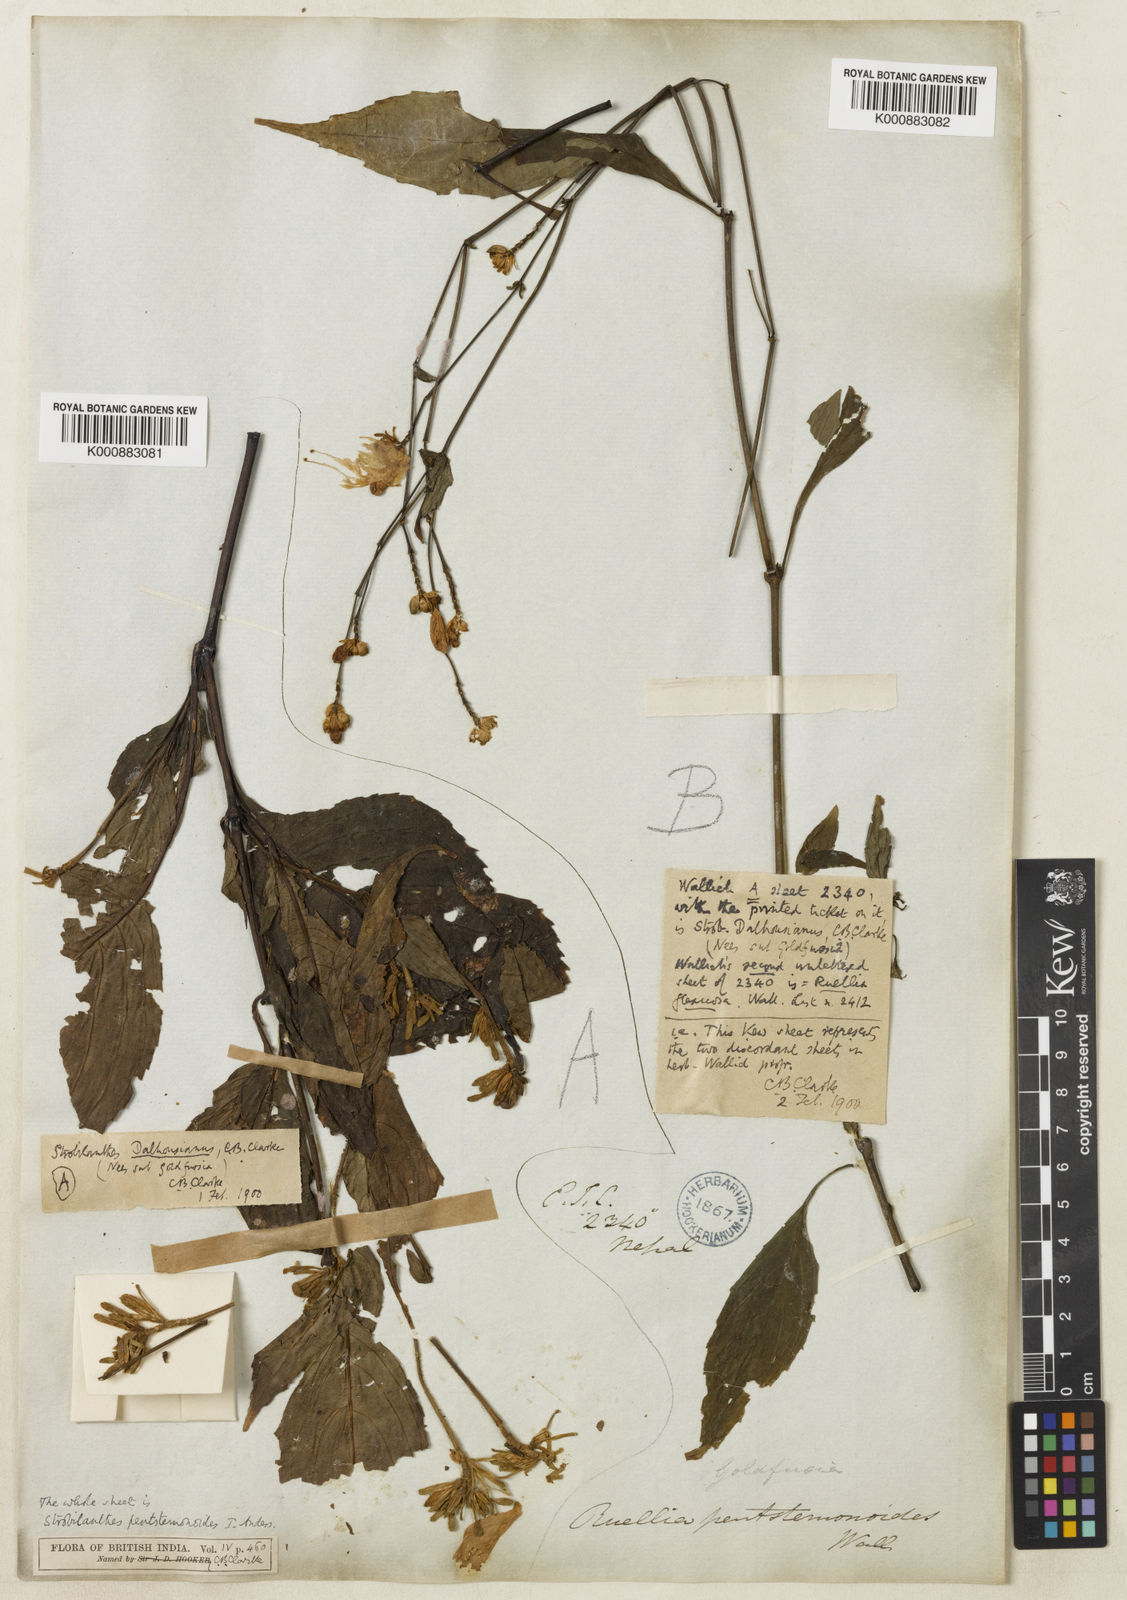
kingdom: Plantae
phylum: Tracheophyta
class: Magnoliopsida
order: Lamiales
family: Acanthaceae
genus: Strobilanthes
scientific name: Strobilanthes
